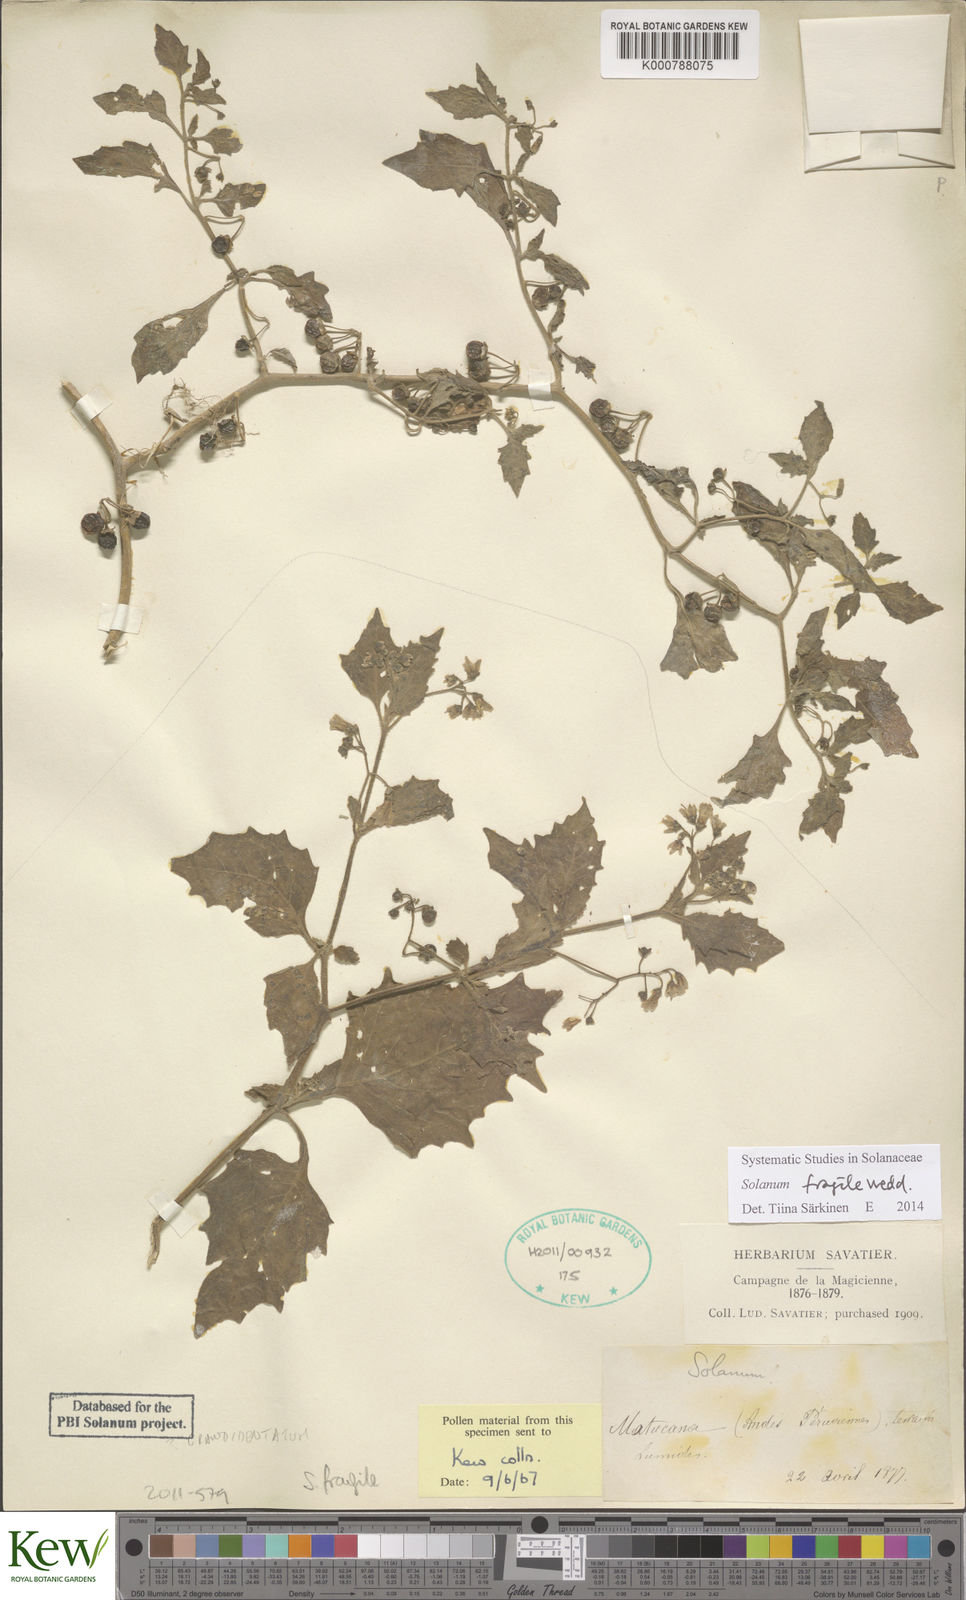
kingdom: Plantae
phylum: Tracheophyta
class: Magnoliopsida
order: Solanales
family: Solanaceae
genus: Solanum
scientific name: Solanum fragile
